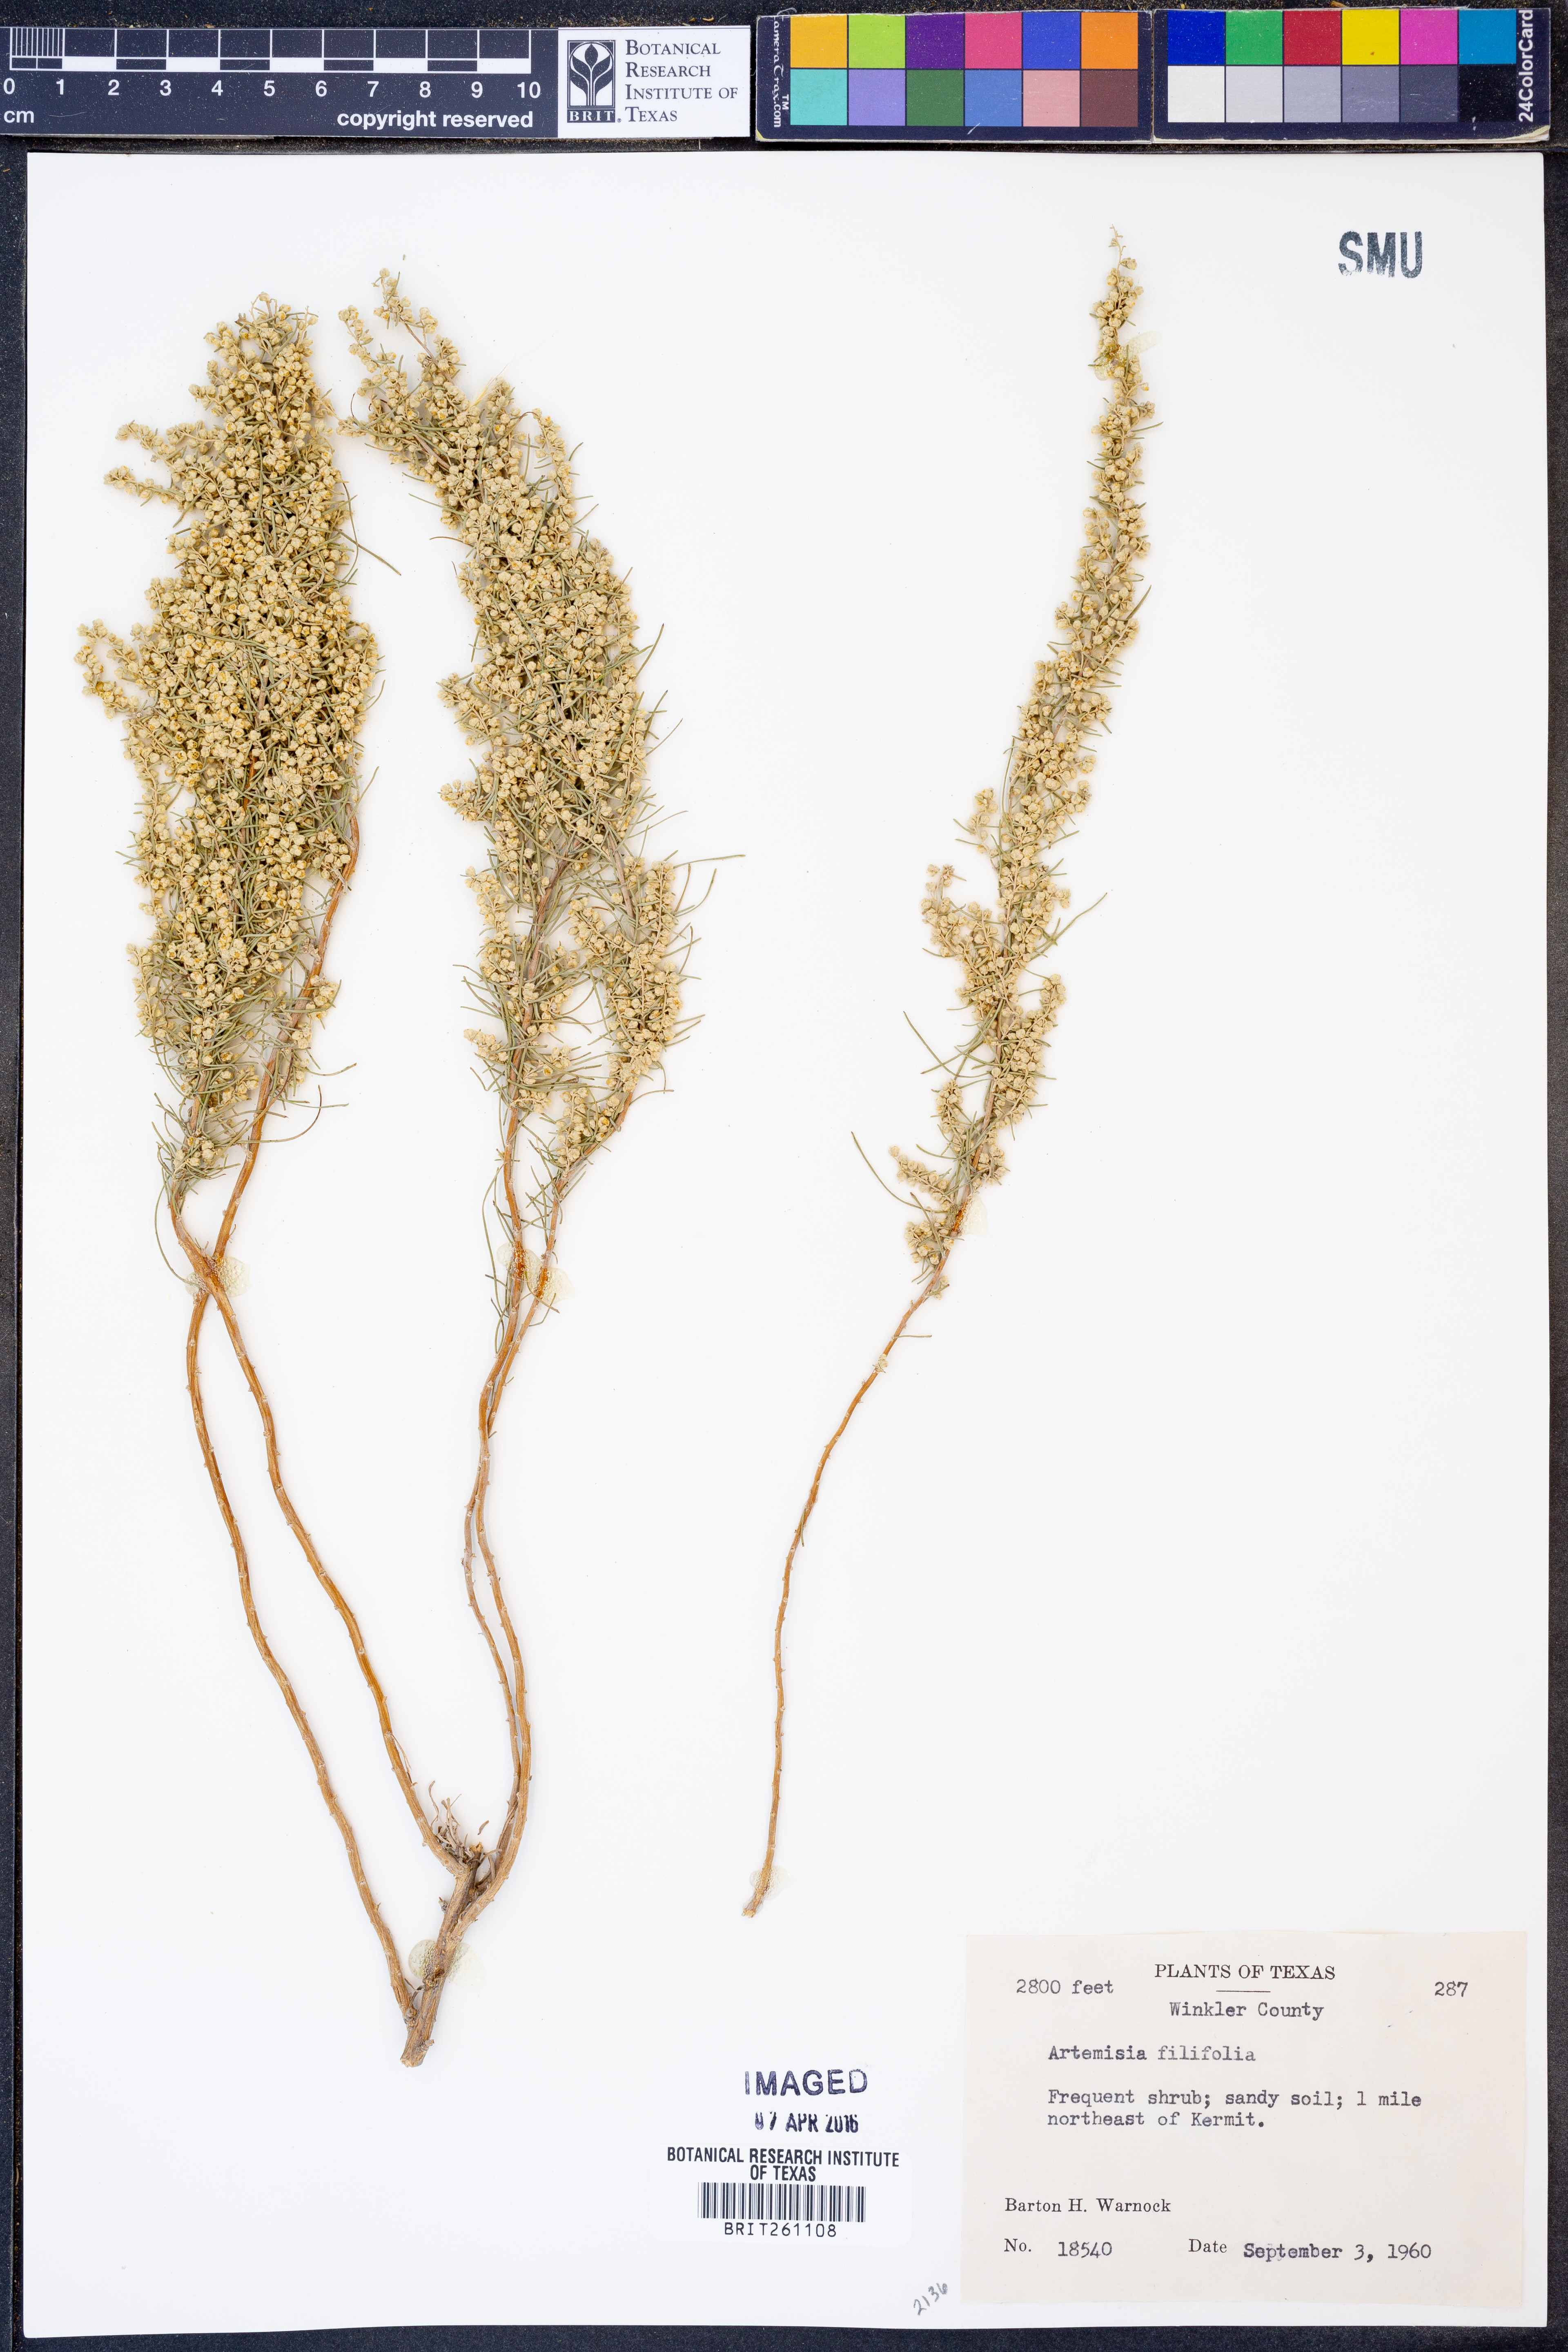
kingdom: Plantae
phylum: Tracheophyta
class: Magnoliopsida
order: Asterales
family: Asteraceae
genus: Artemisia
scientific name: Artemisia filifolia
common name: Sand-sage
